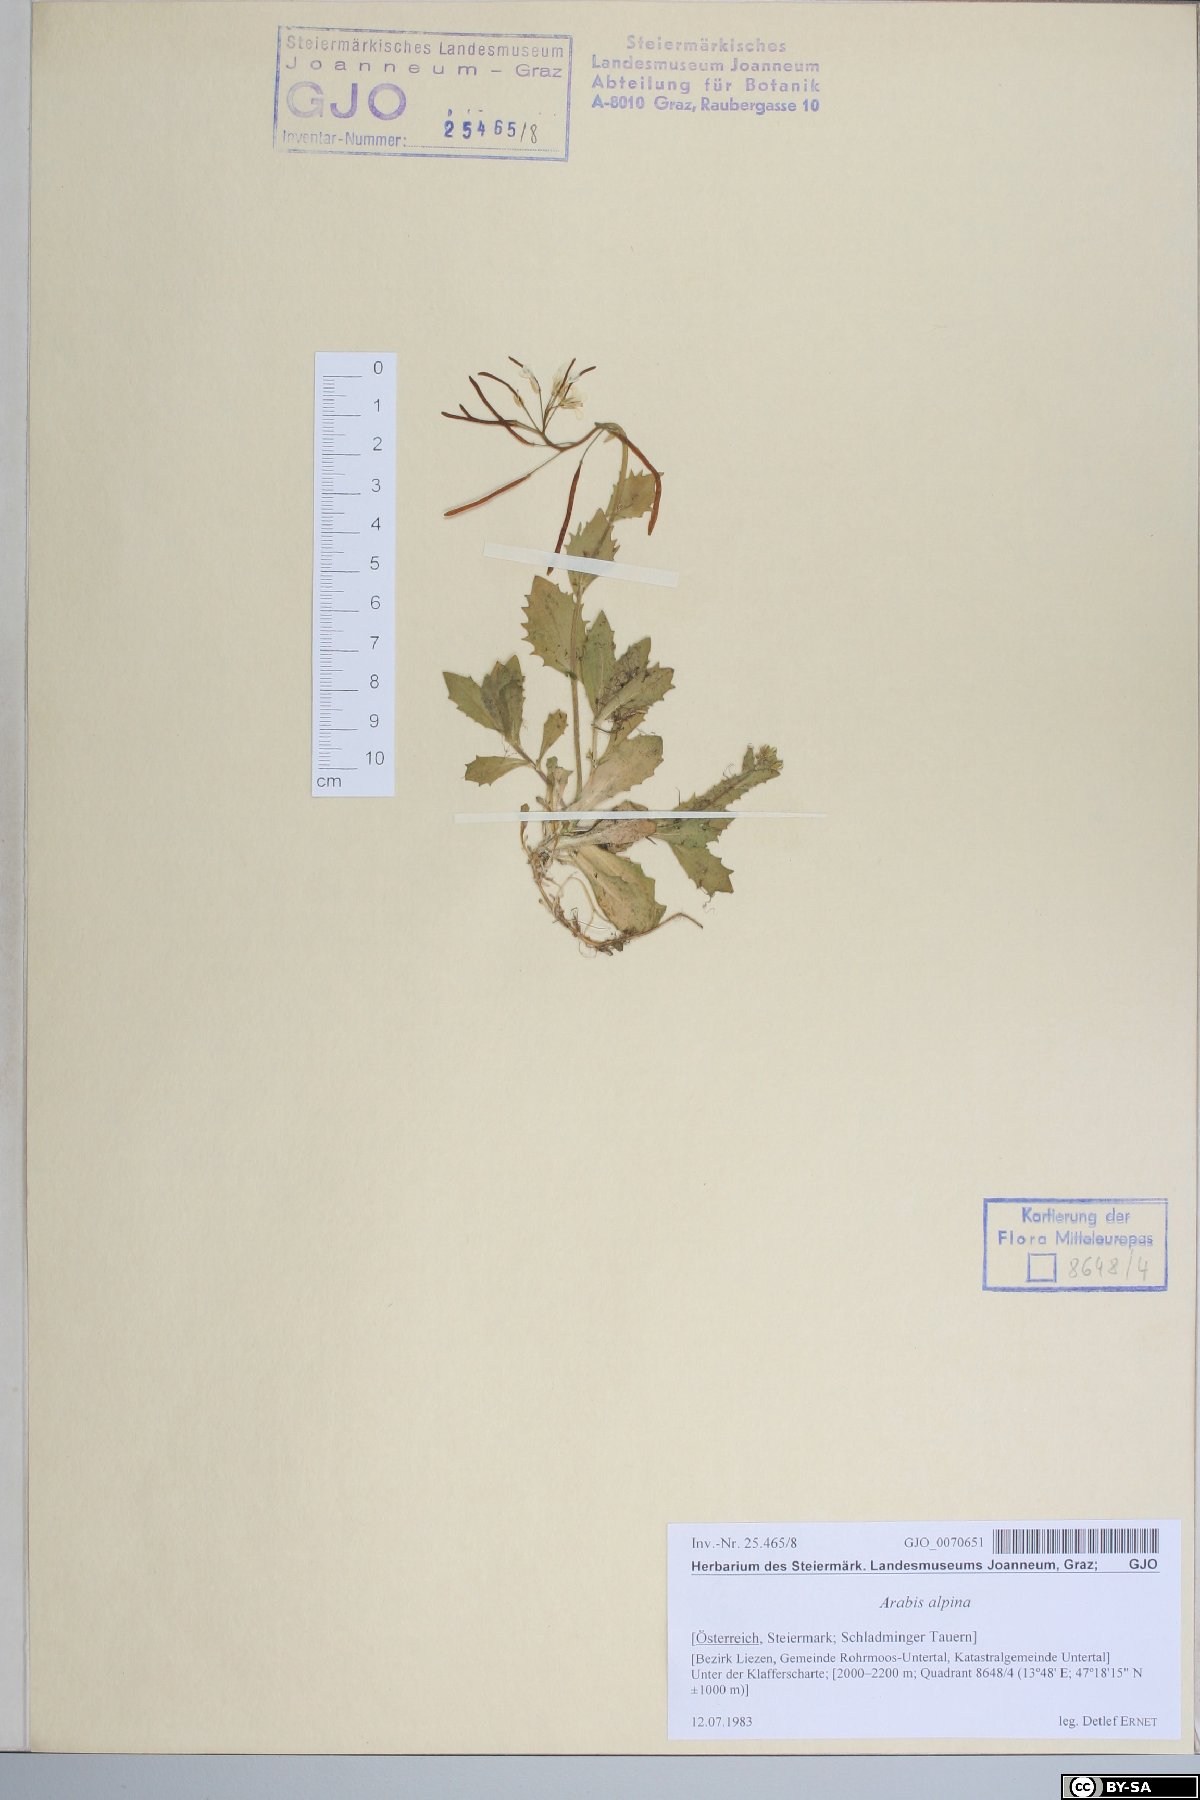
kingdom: Plantae
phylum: Tracheophyta
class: Magnoliopsida
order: Brassicales
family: Brassicaceae
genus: Arabis
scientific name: Arabis alpina
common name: Alpine rock-cress
